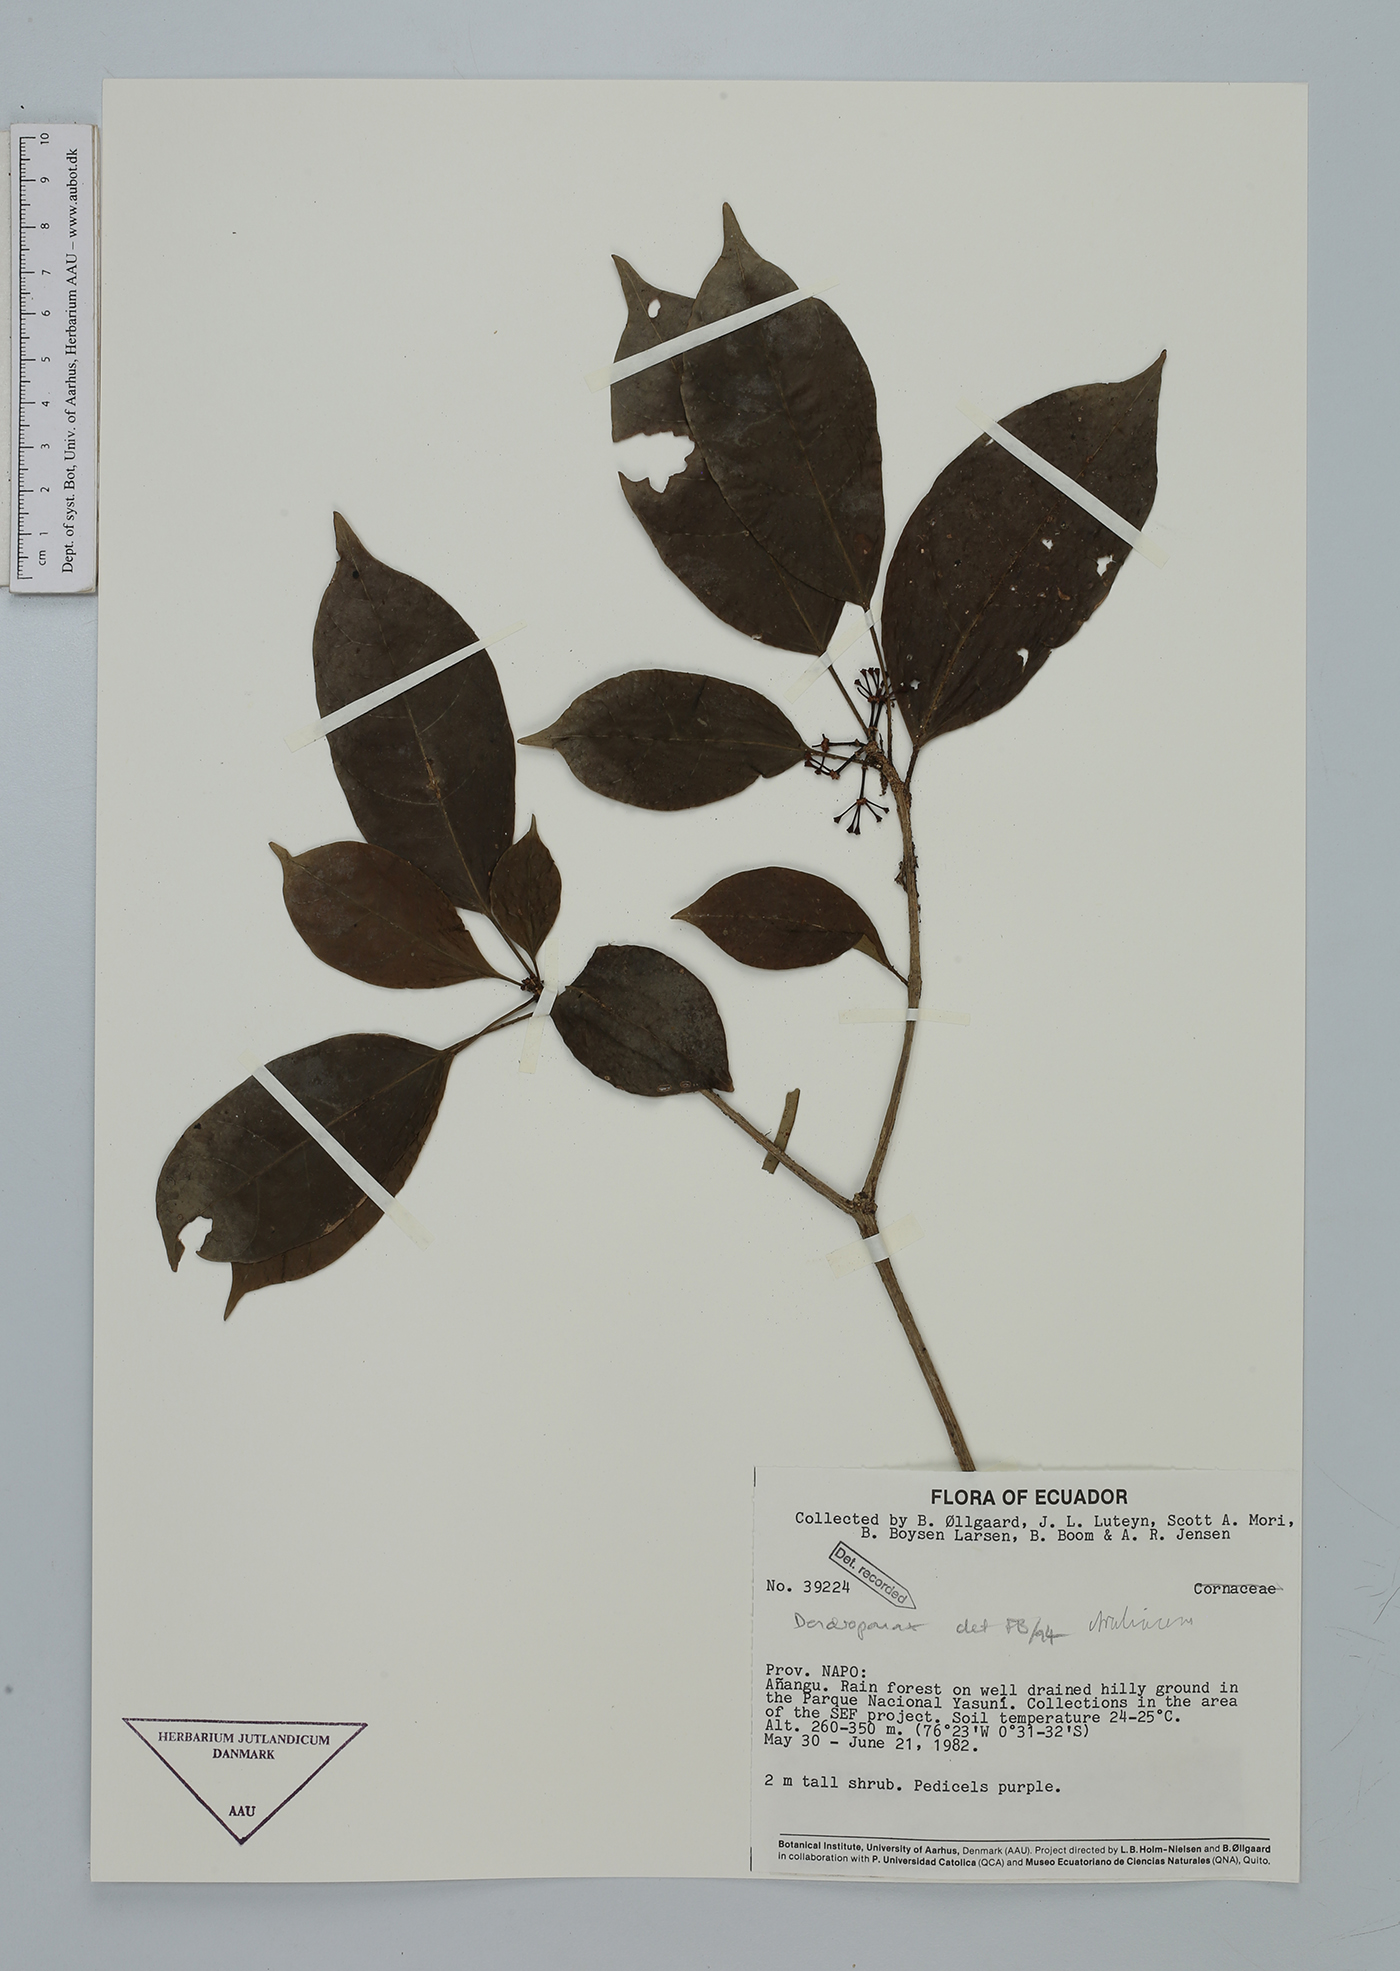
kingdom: Plantae
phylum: Tracheophyta
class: Magnoliopsida
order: Apiales
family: Araliaceae
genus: Dendropanax
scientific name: Dendropanax
